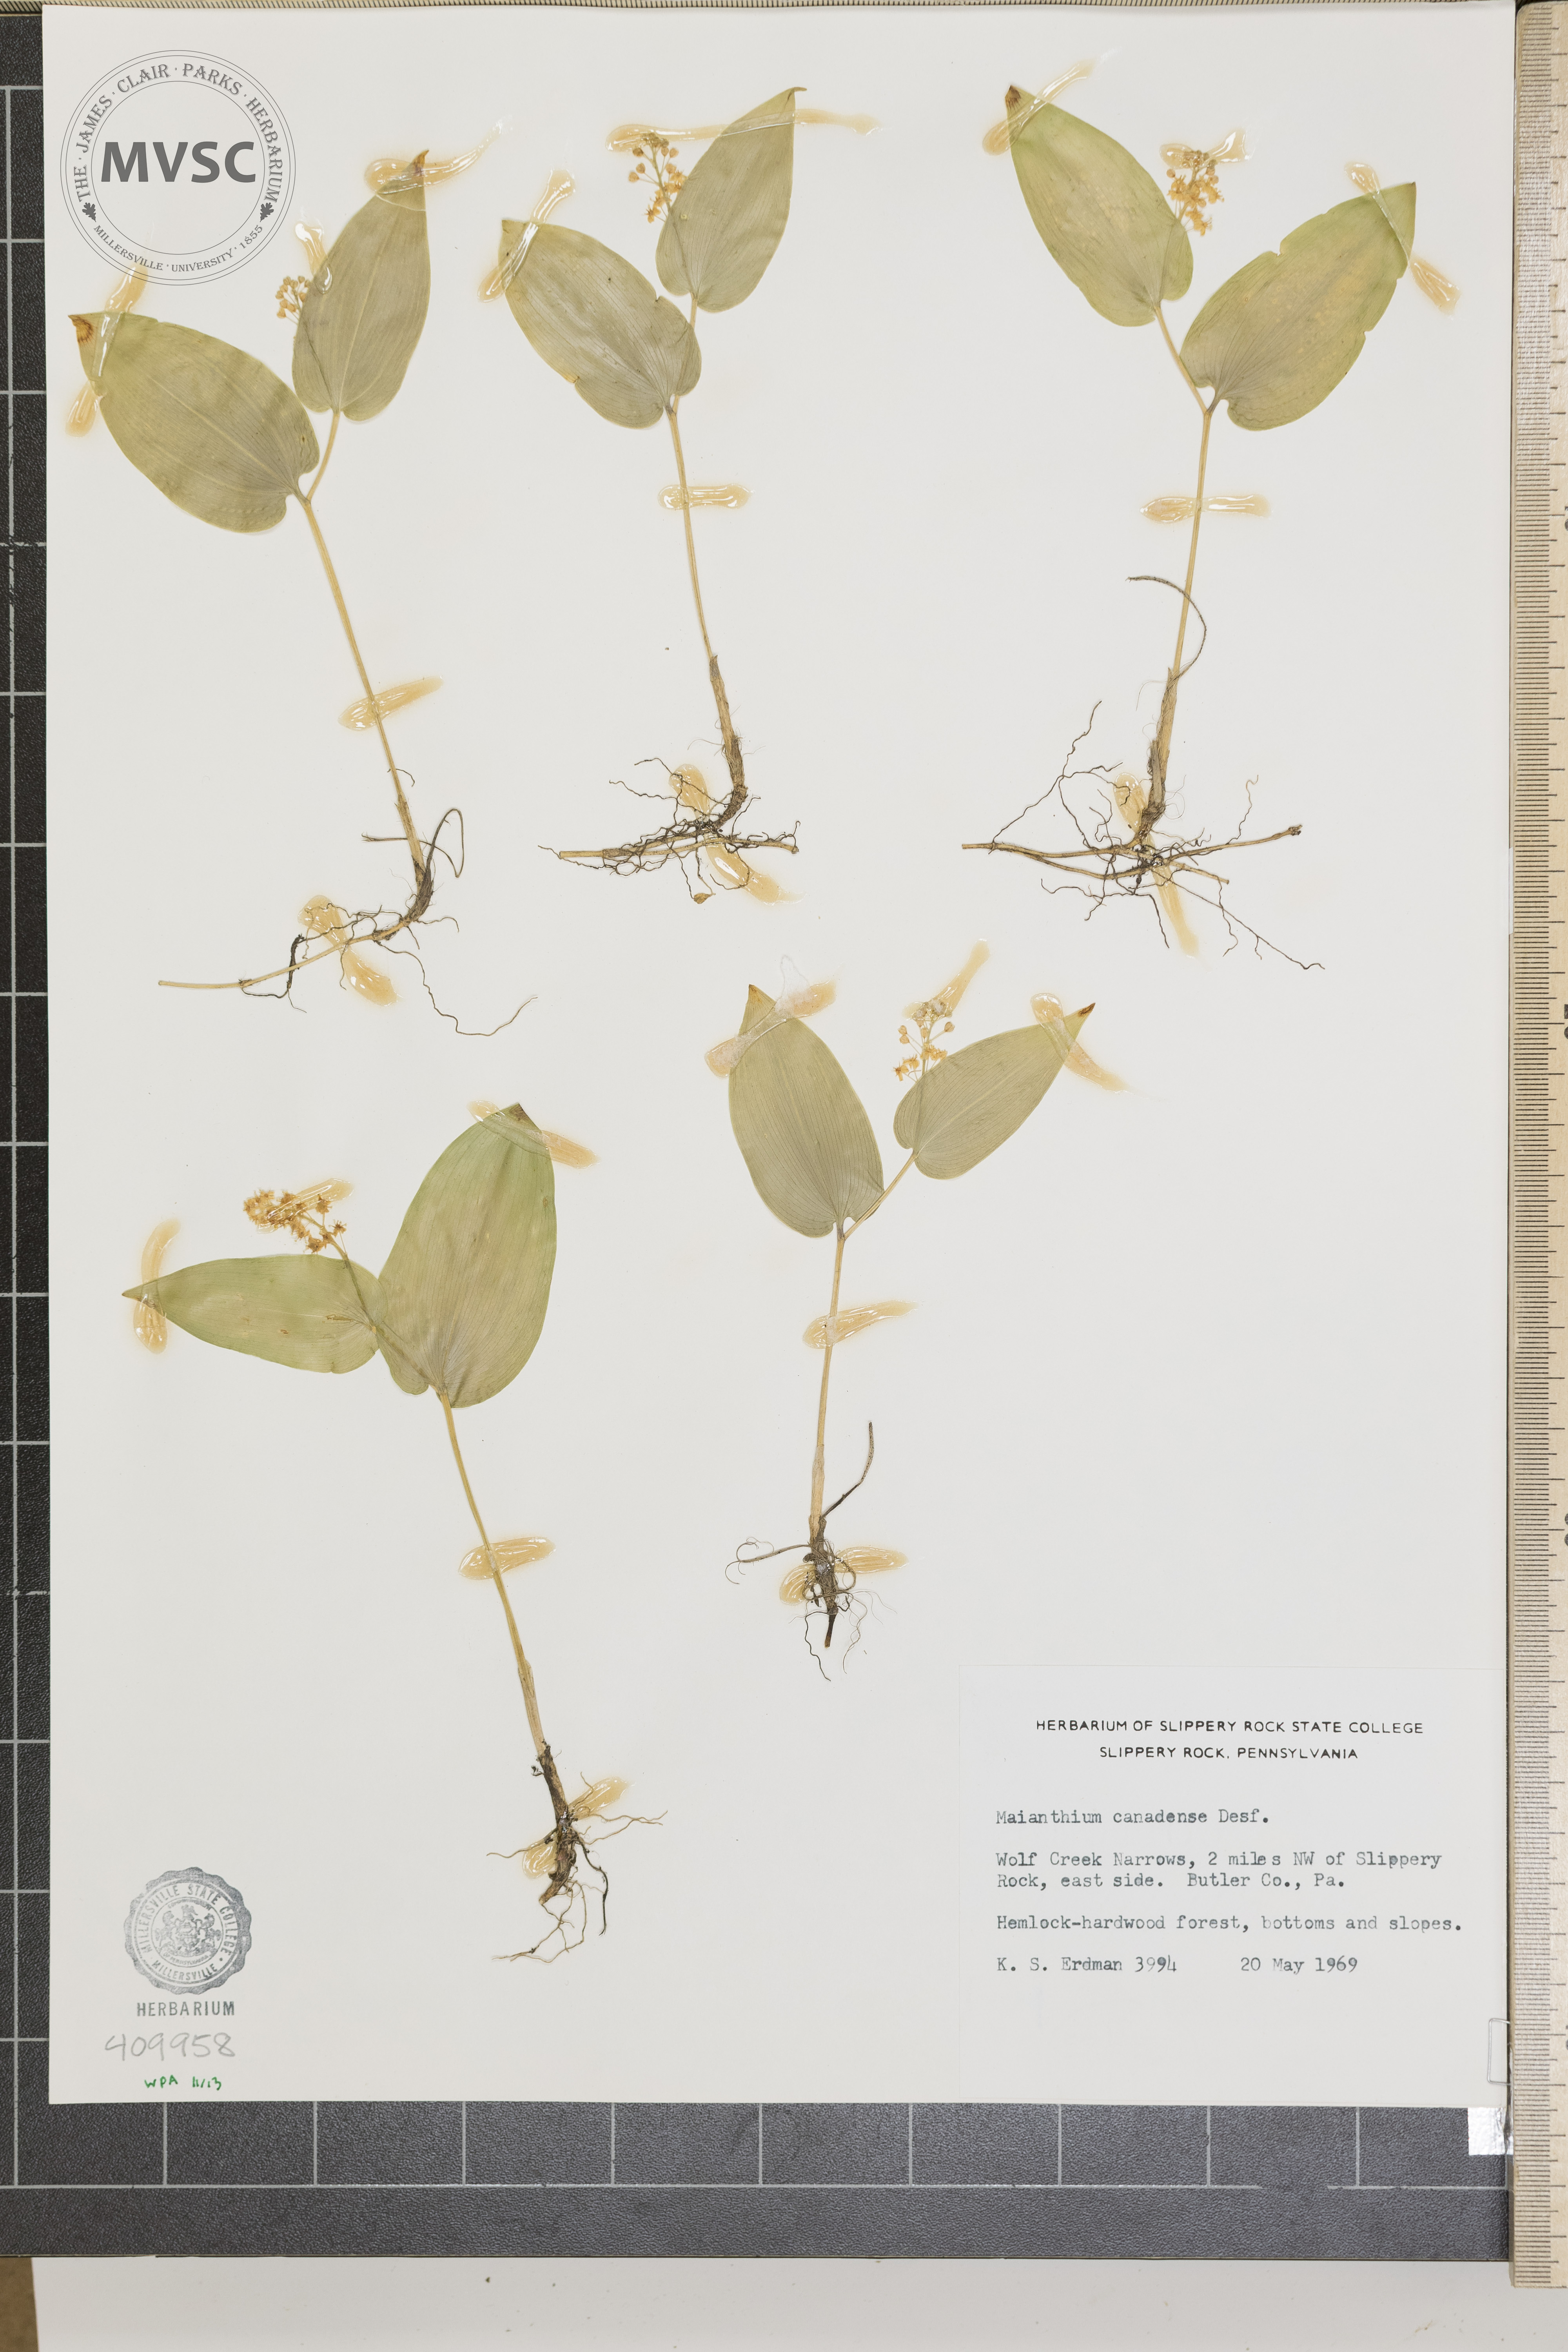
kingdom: Plantae
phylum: Tracheophyta
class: Liliopsida
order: Asparagales
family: Asparagaceae
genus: Maianthemum
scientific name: Maianthemum canadense
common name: False lily-of-the-valley
